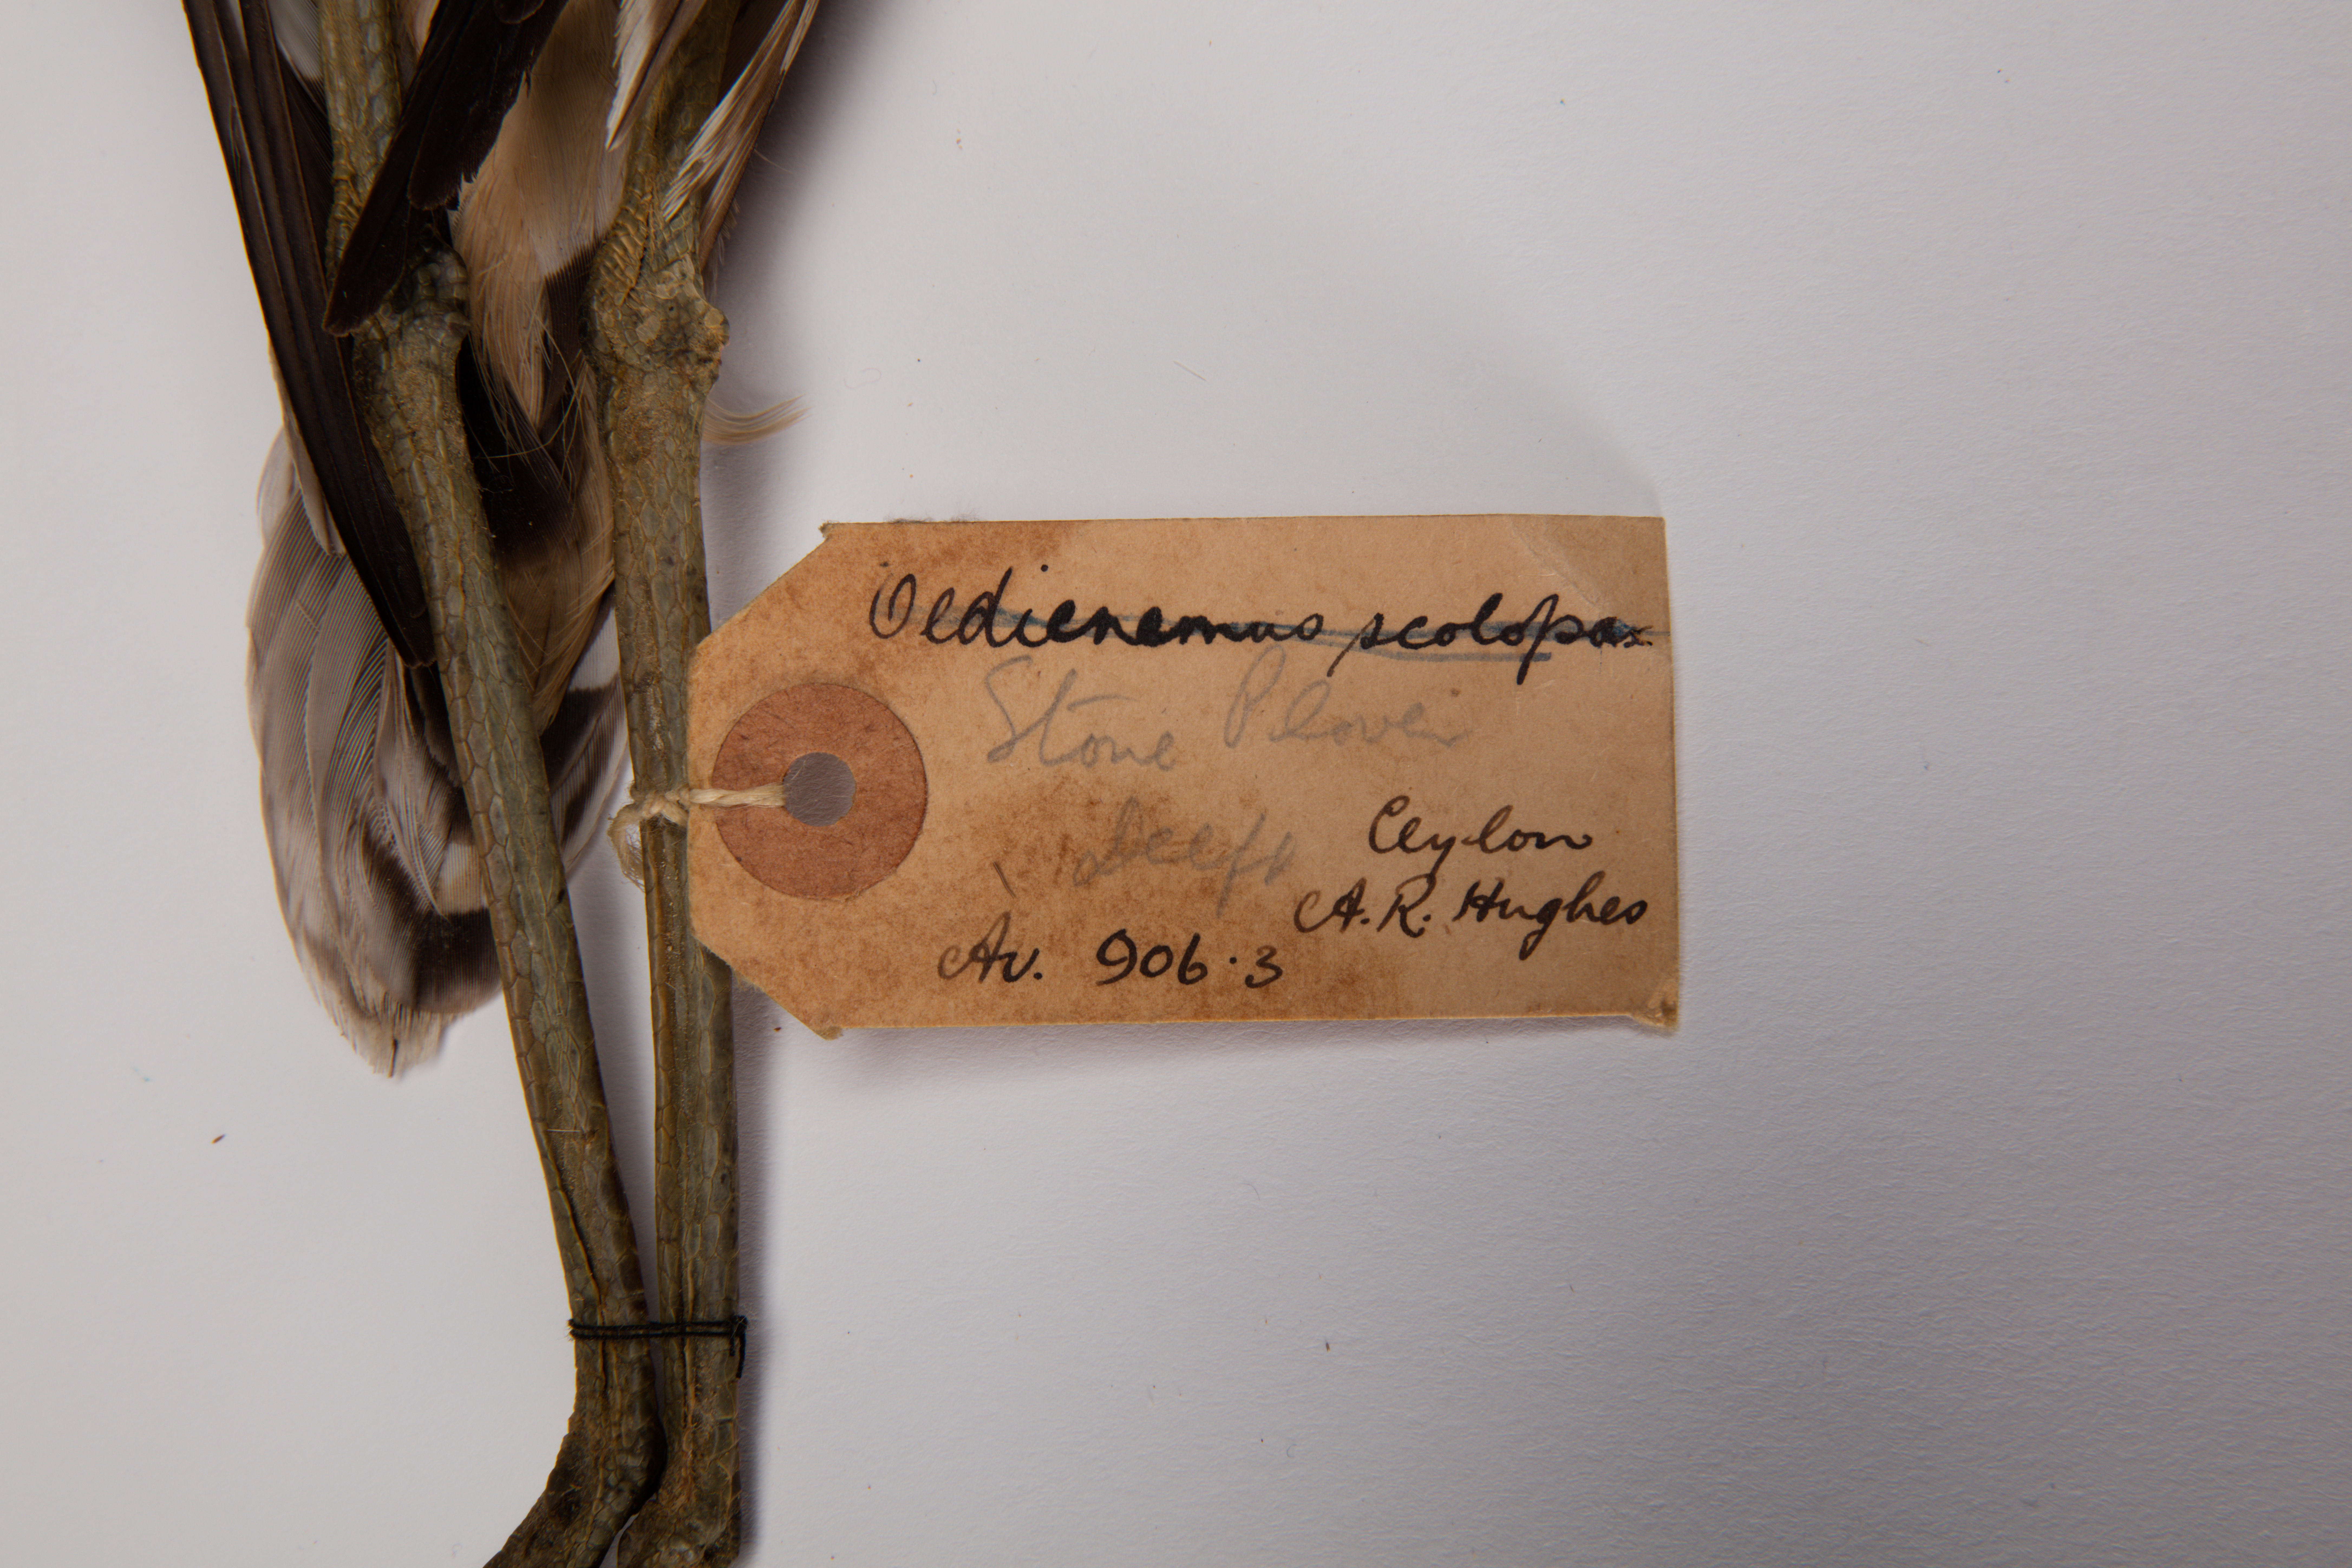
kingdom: Animalia
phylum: Chordata
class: Aves
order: Charadriiformes
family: Burhinidae
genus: Burhinus
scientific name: Burhinus oedicnemus
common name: Eurasian stone-curlew
